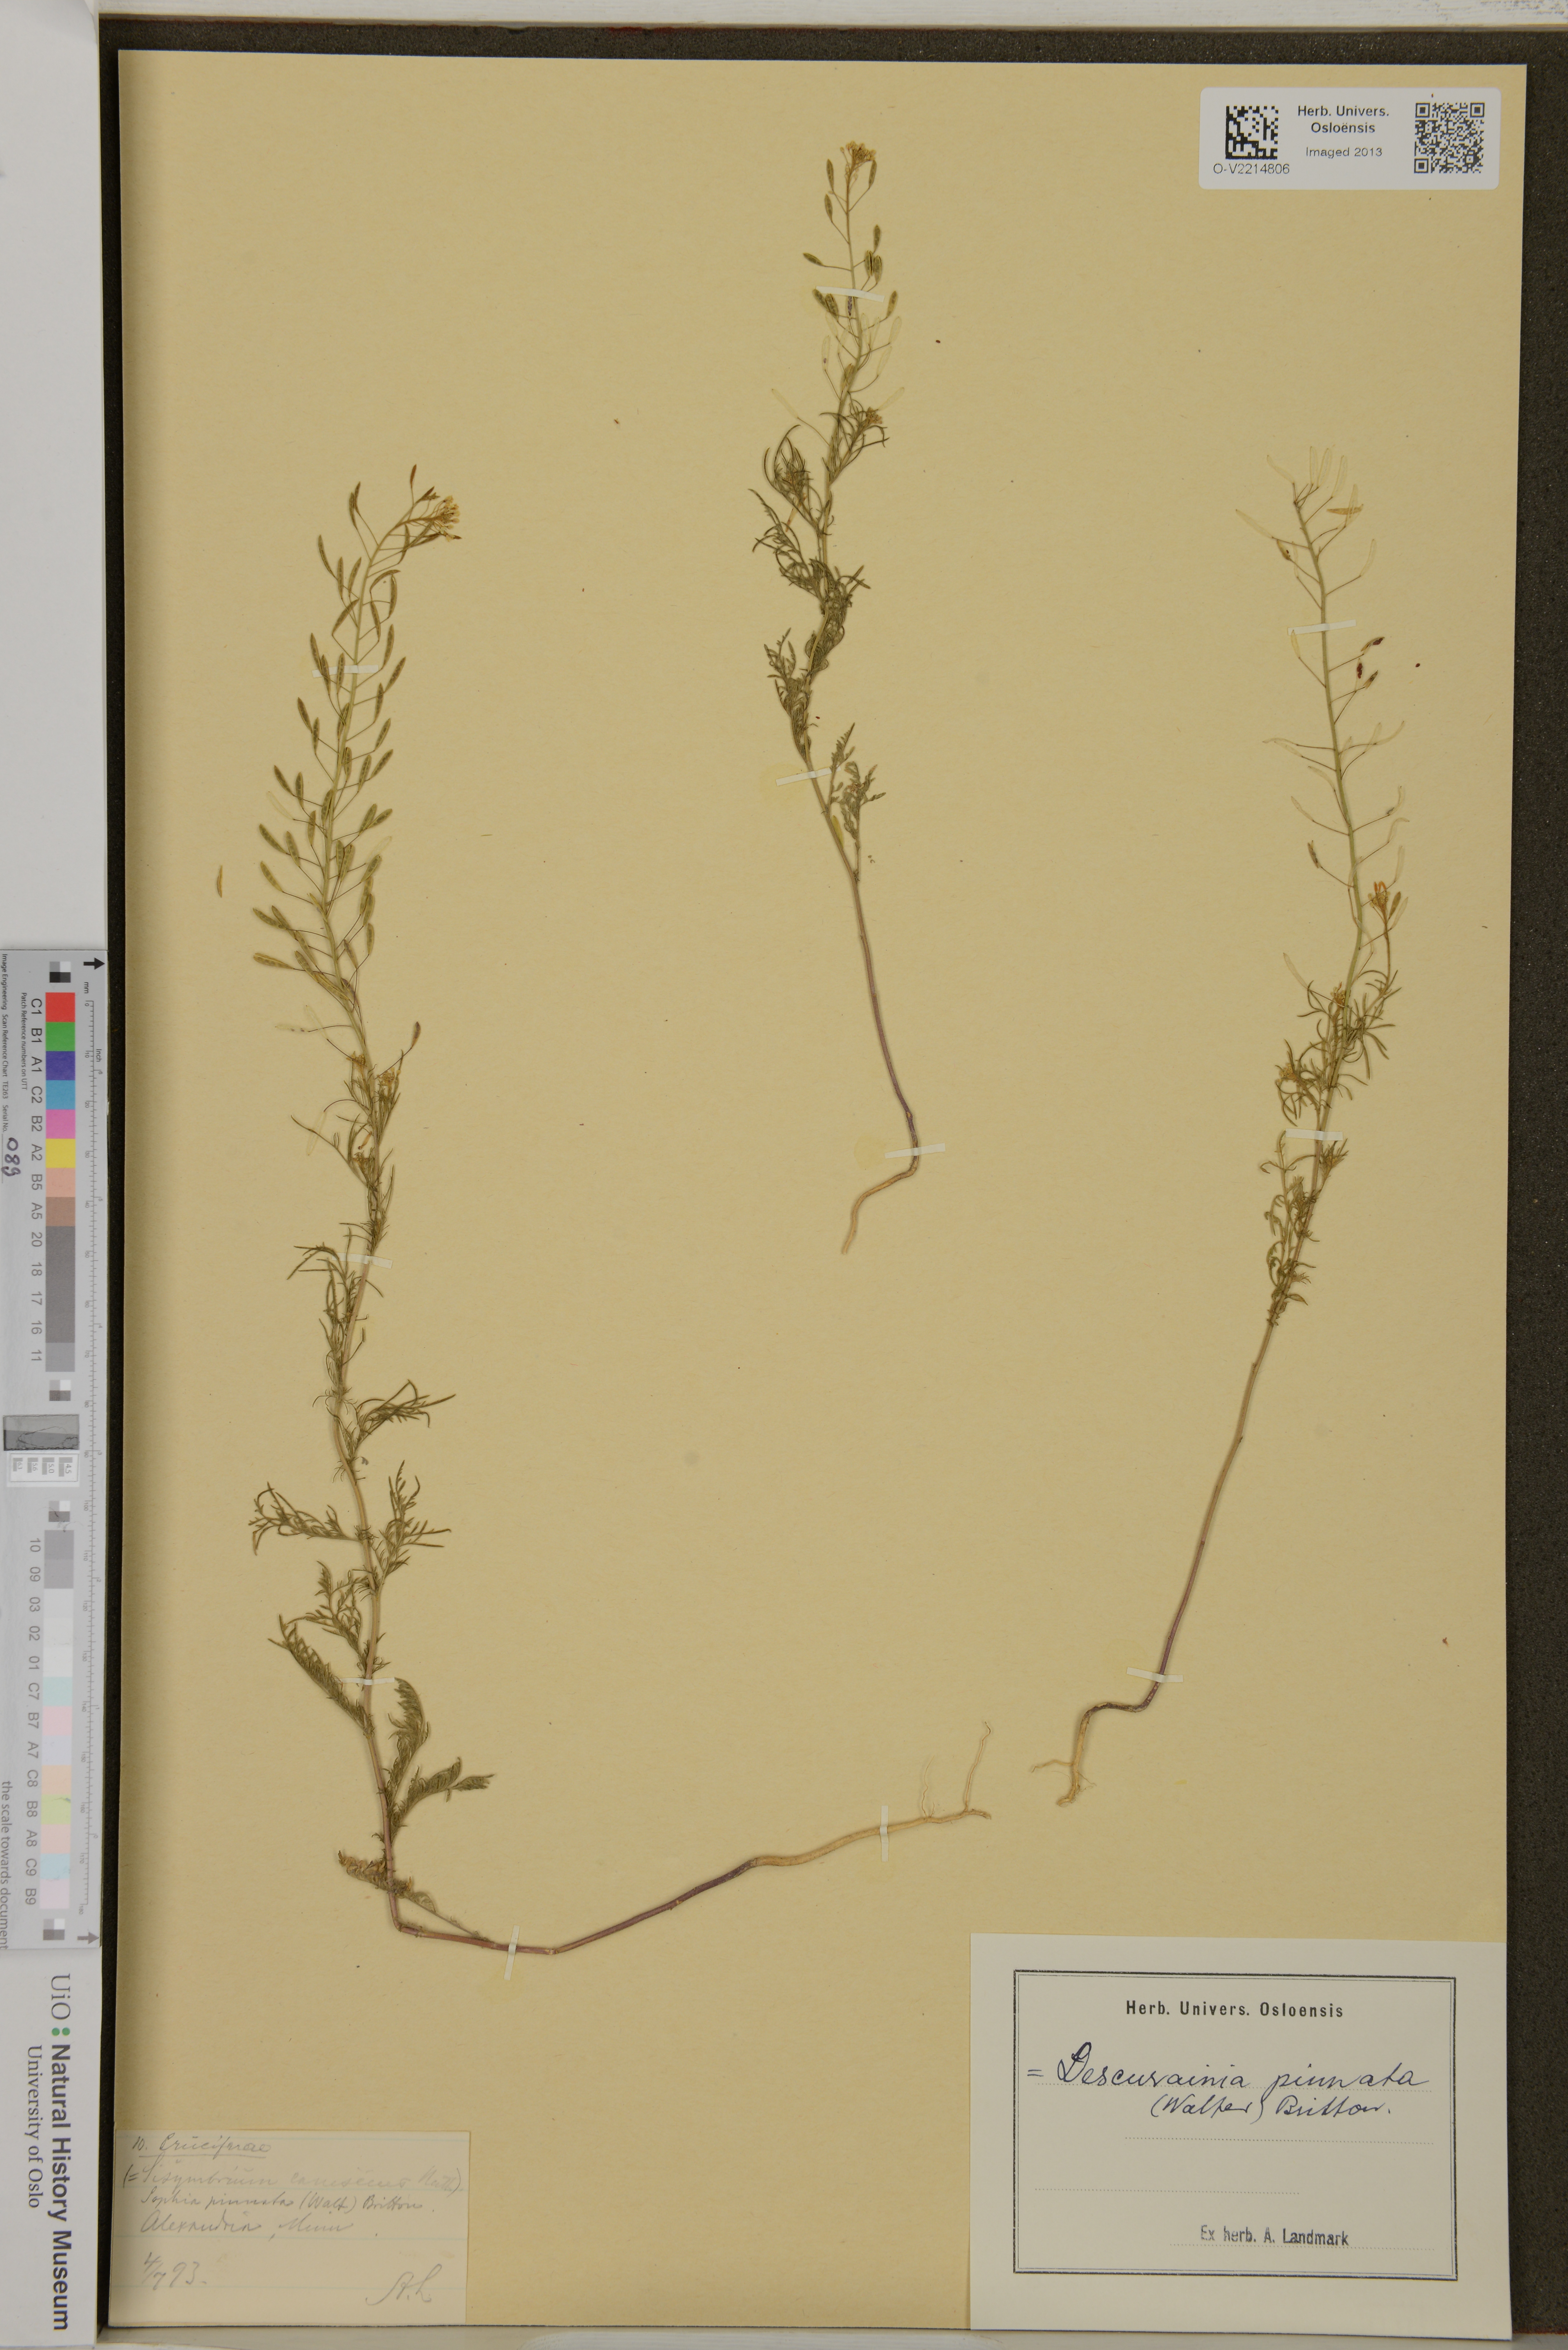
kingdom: Plantae
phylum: Tracheophyta
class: Magnoliopsida
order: Brassicales
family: Brassicaceae
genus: Descurainia
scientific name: Descurainia pinnata
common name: Western tansy mustard
